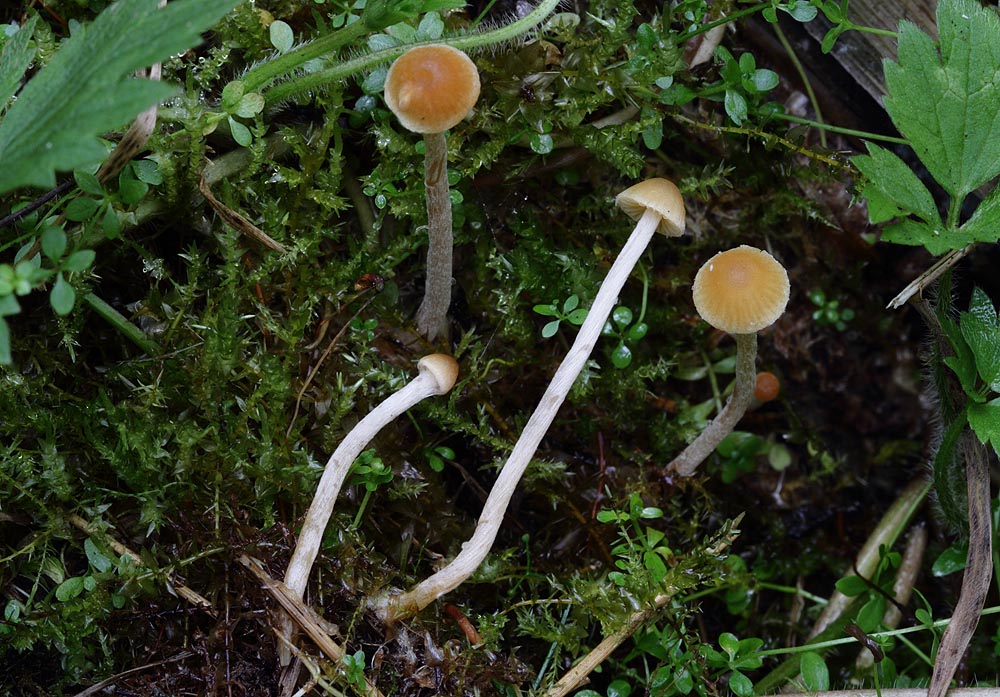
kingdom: Fungi
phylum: Basidiomycota
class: Agaricomycetes
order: Agaricales
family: Hymenogastraceae
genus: Galerina
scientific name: Galerina clavata
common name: kær-hjelmhat
